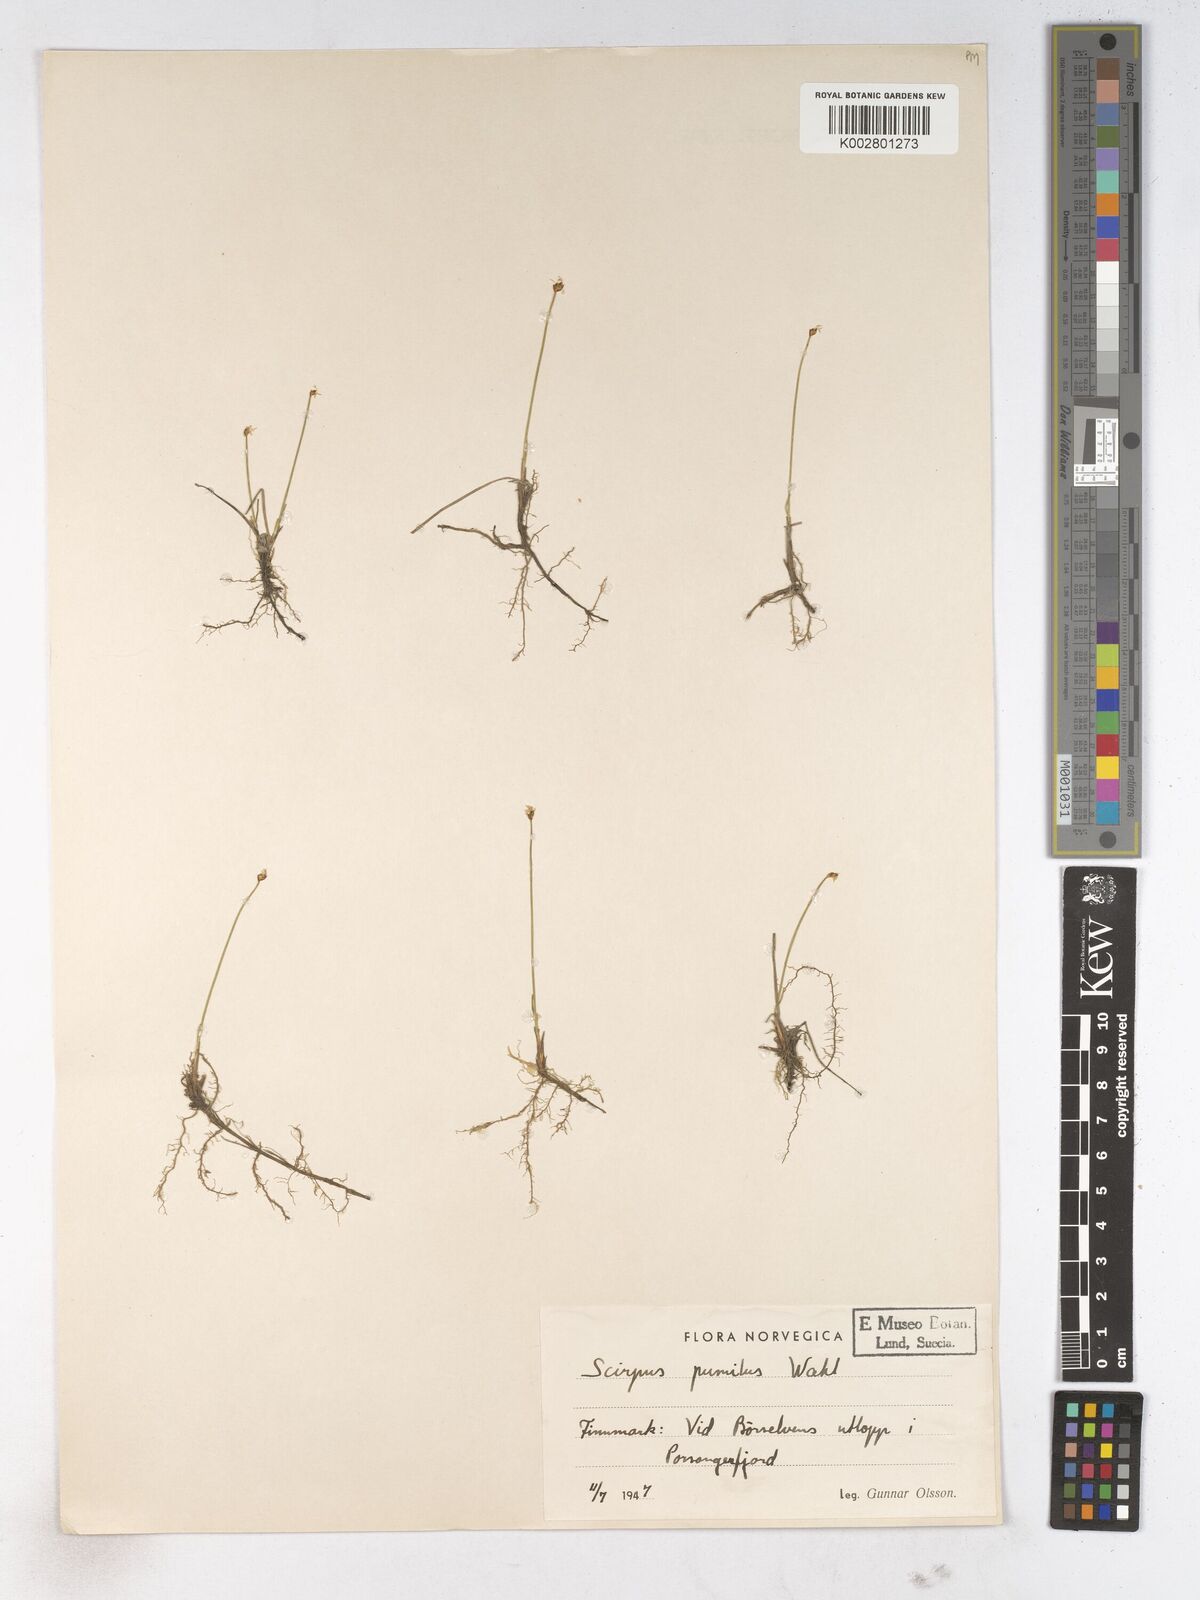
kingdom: Plantae
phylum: Tracheophyta
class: Liliopsida
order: Poales
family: Cyperaceae
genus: Trichophorum
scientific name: Trichophorum pumilum
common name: Rolland's bulrush
